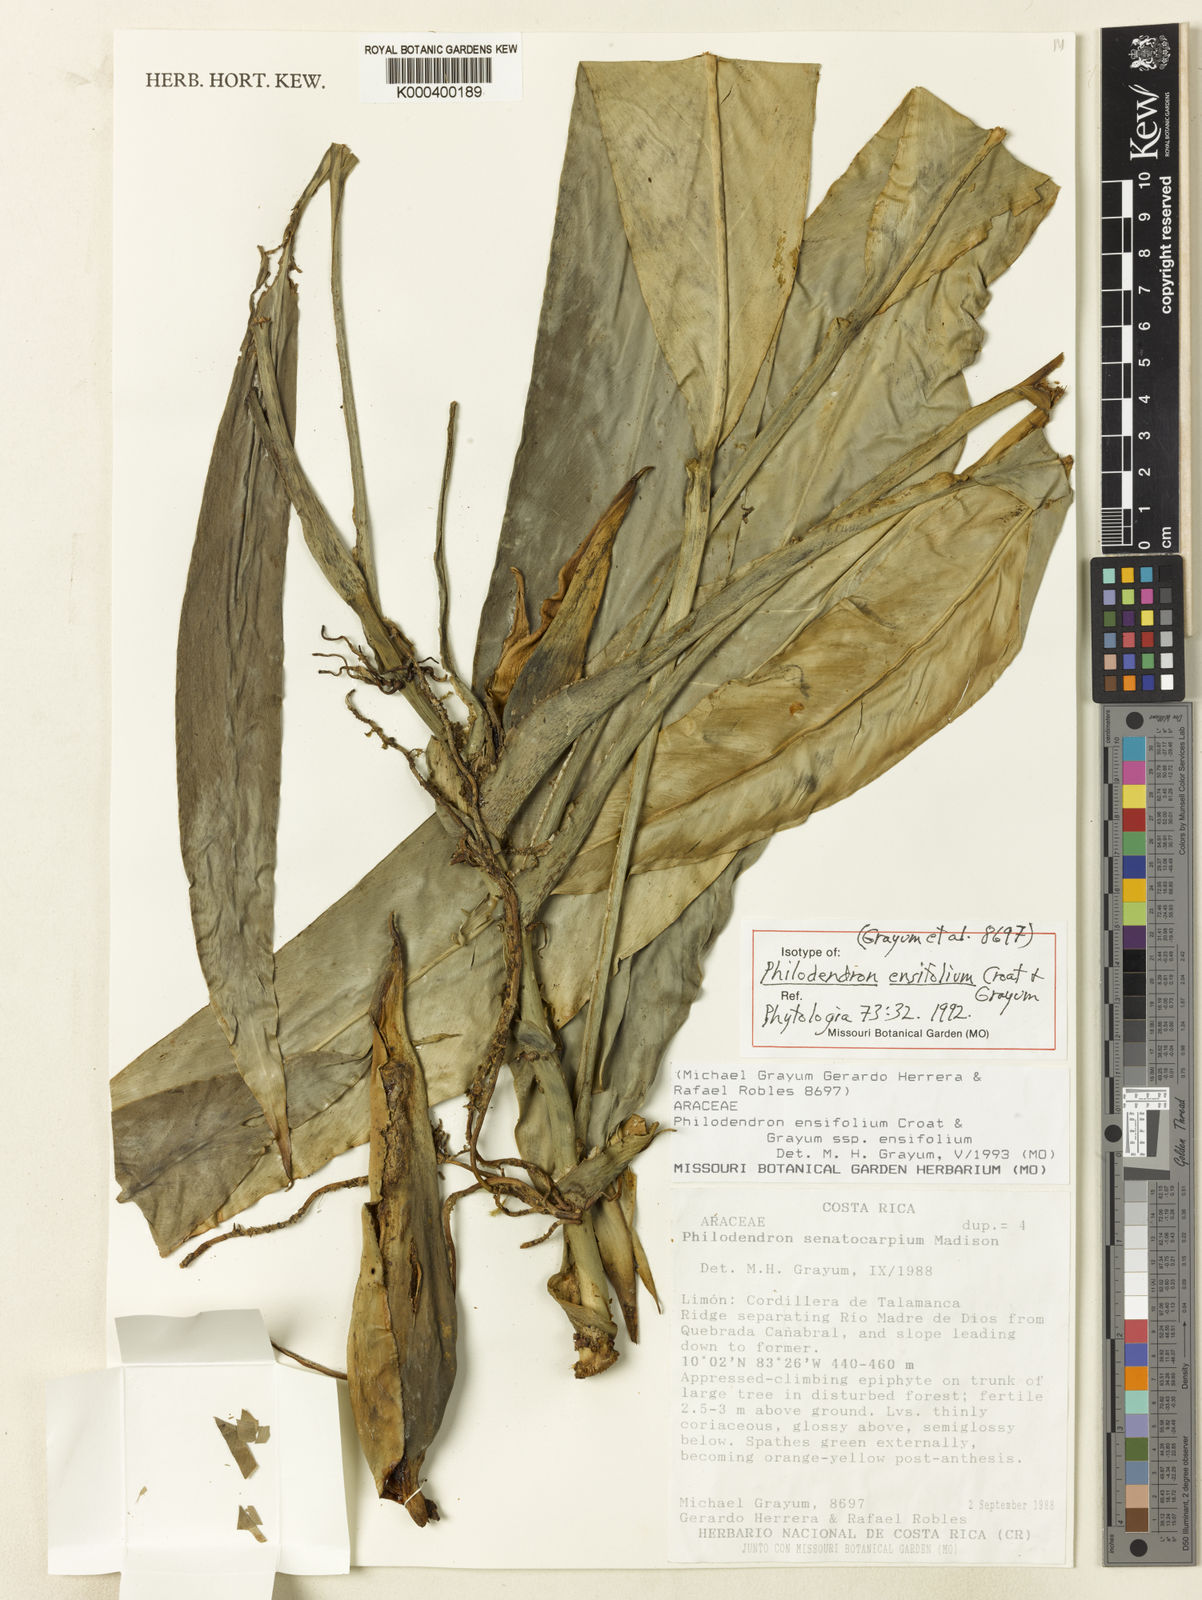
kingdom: Plantae
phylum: Tracheophyta
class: Liliopsida
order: Alismatales
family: Araceae
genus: Philodendron
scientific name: Philodendron ensifolium
